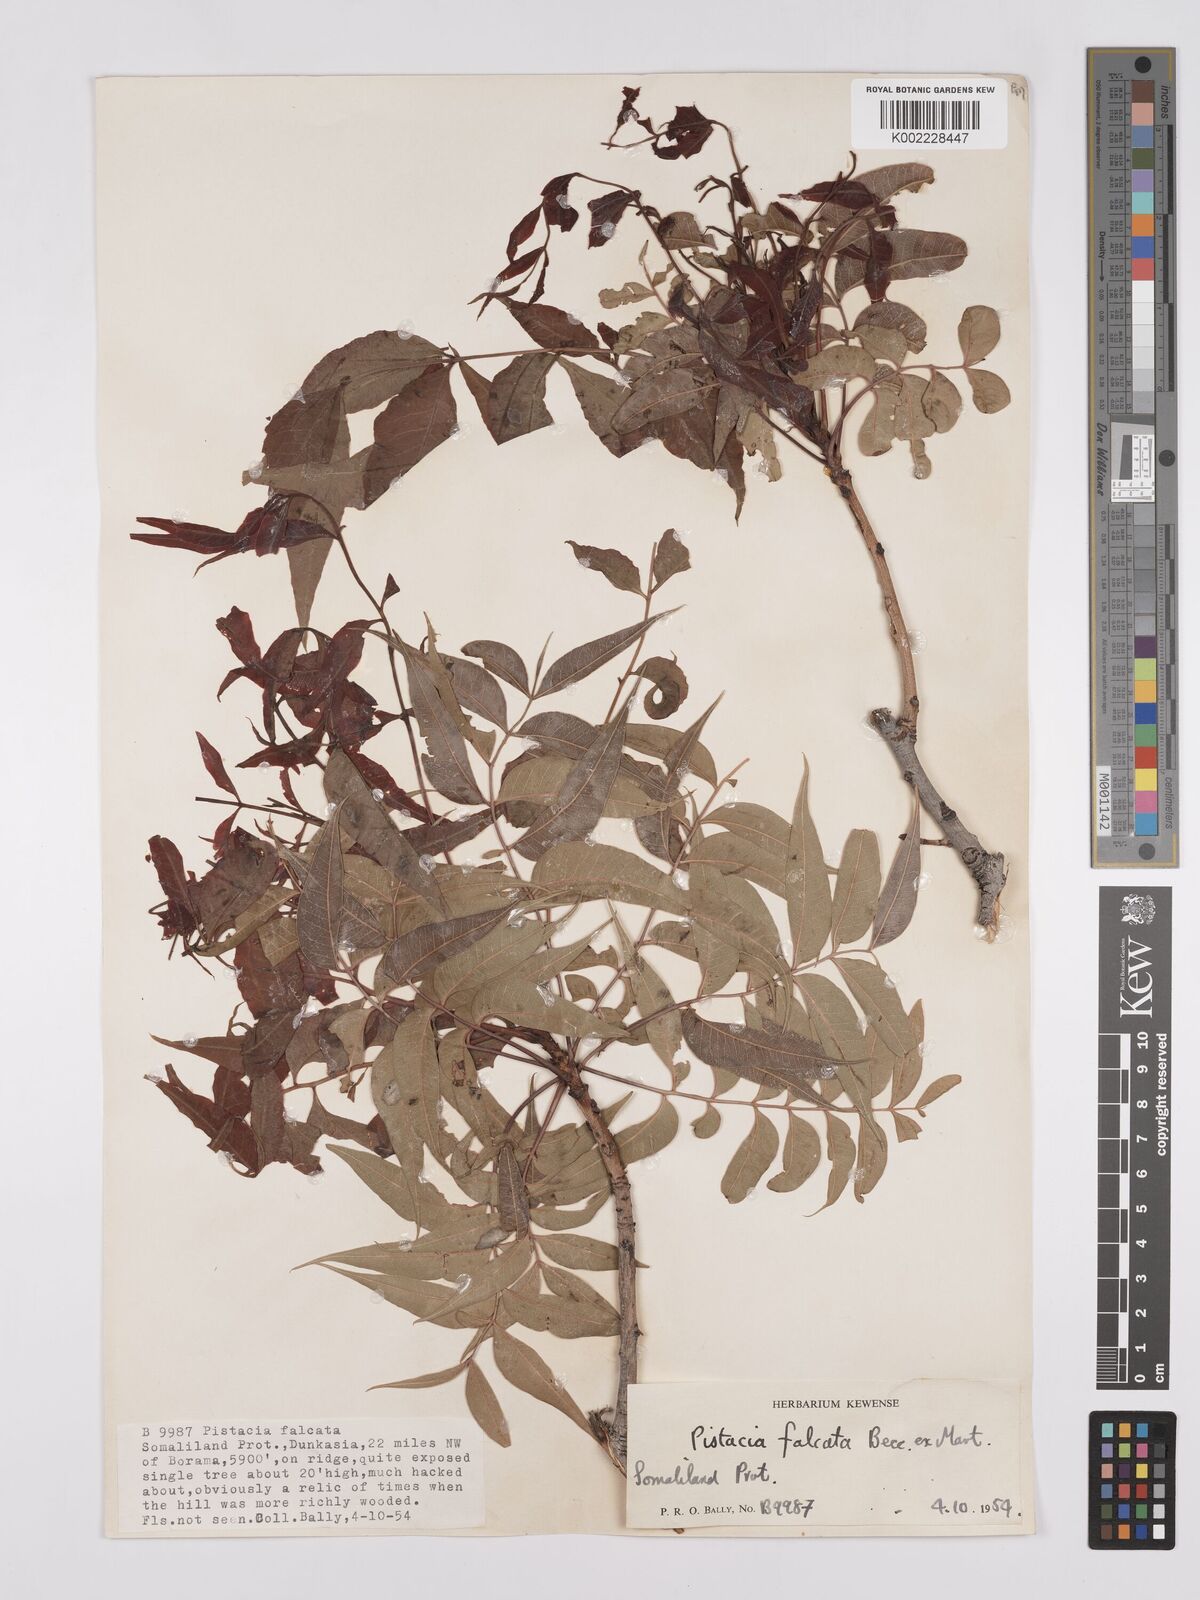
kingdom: Plantae
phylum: Tracheophyta
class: Magnoliopsida
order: Sapindales
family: Anacardiaceae
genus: Pistacia
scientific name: Pistacia falcata
